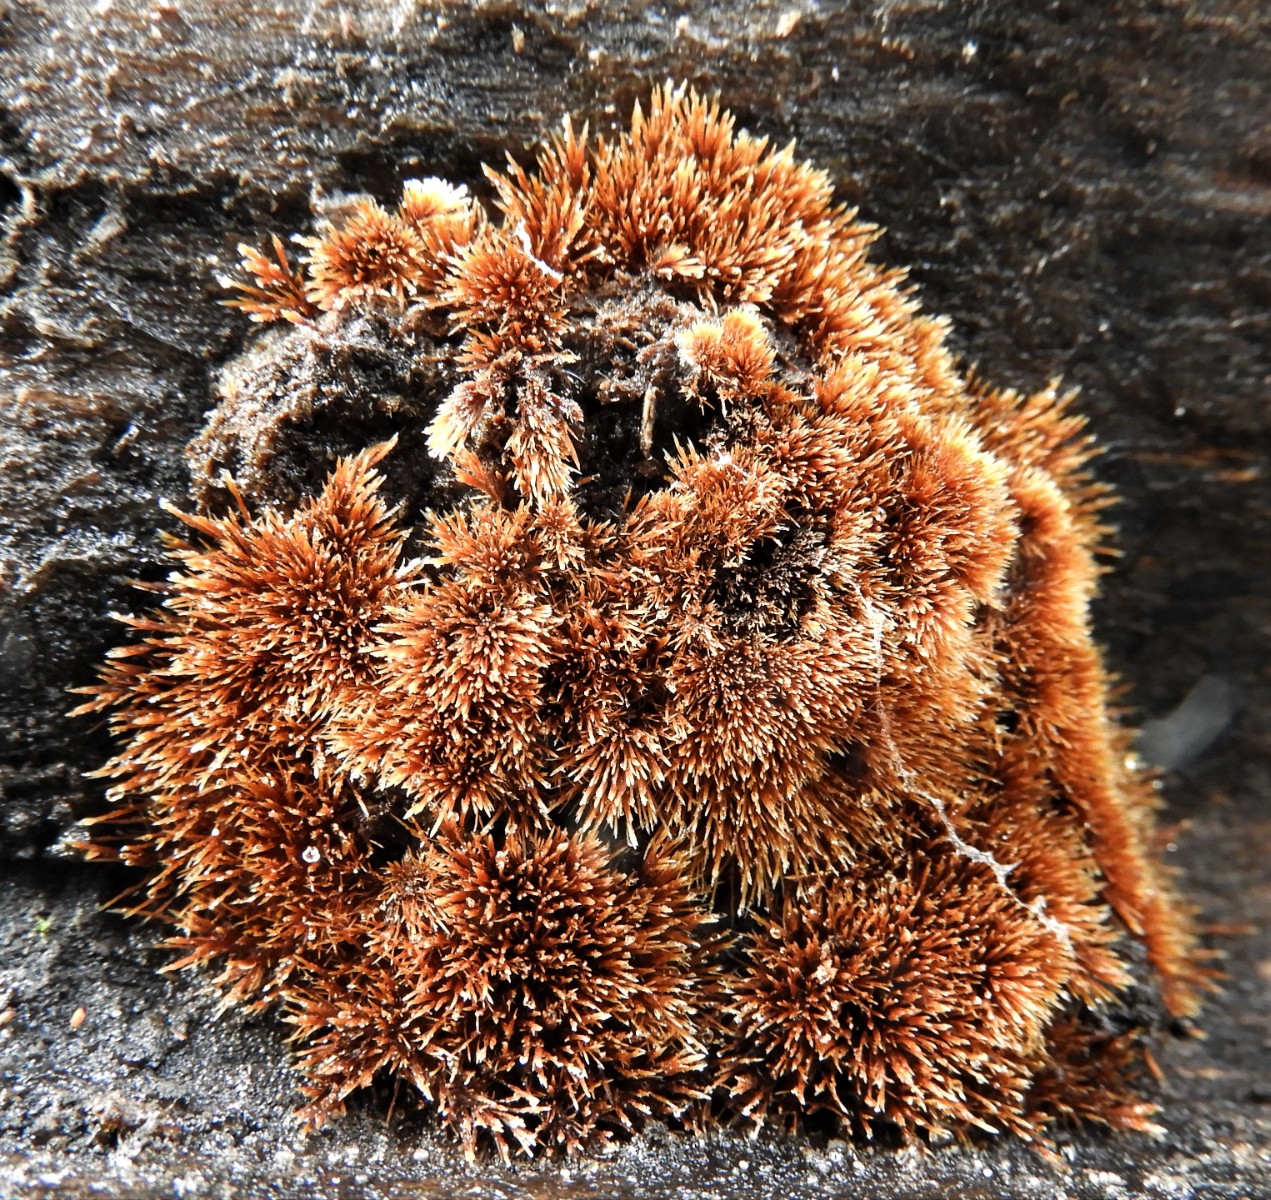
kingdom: Fungi
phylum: Basidiomycota
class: Agaricomycetes
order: Agaricales
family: Psathyrellaceae
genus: Ozonium
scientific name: Ozonium
